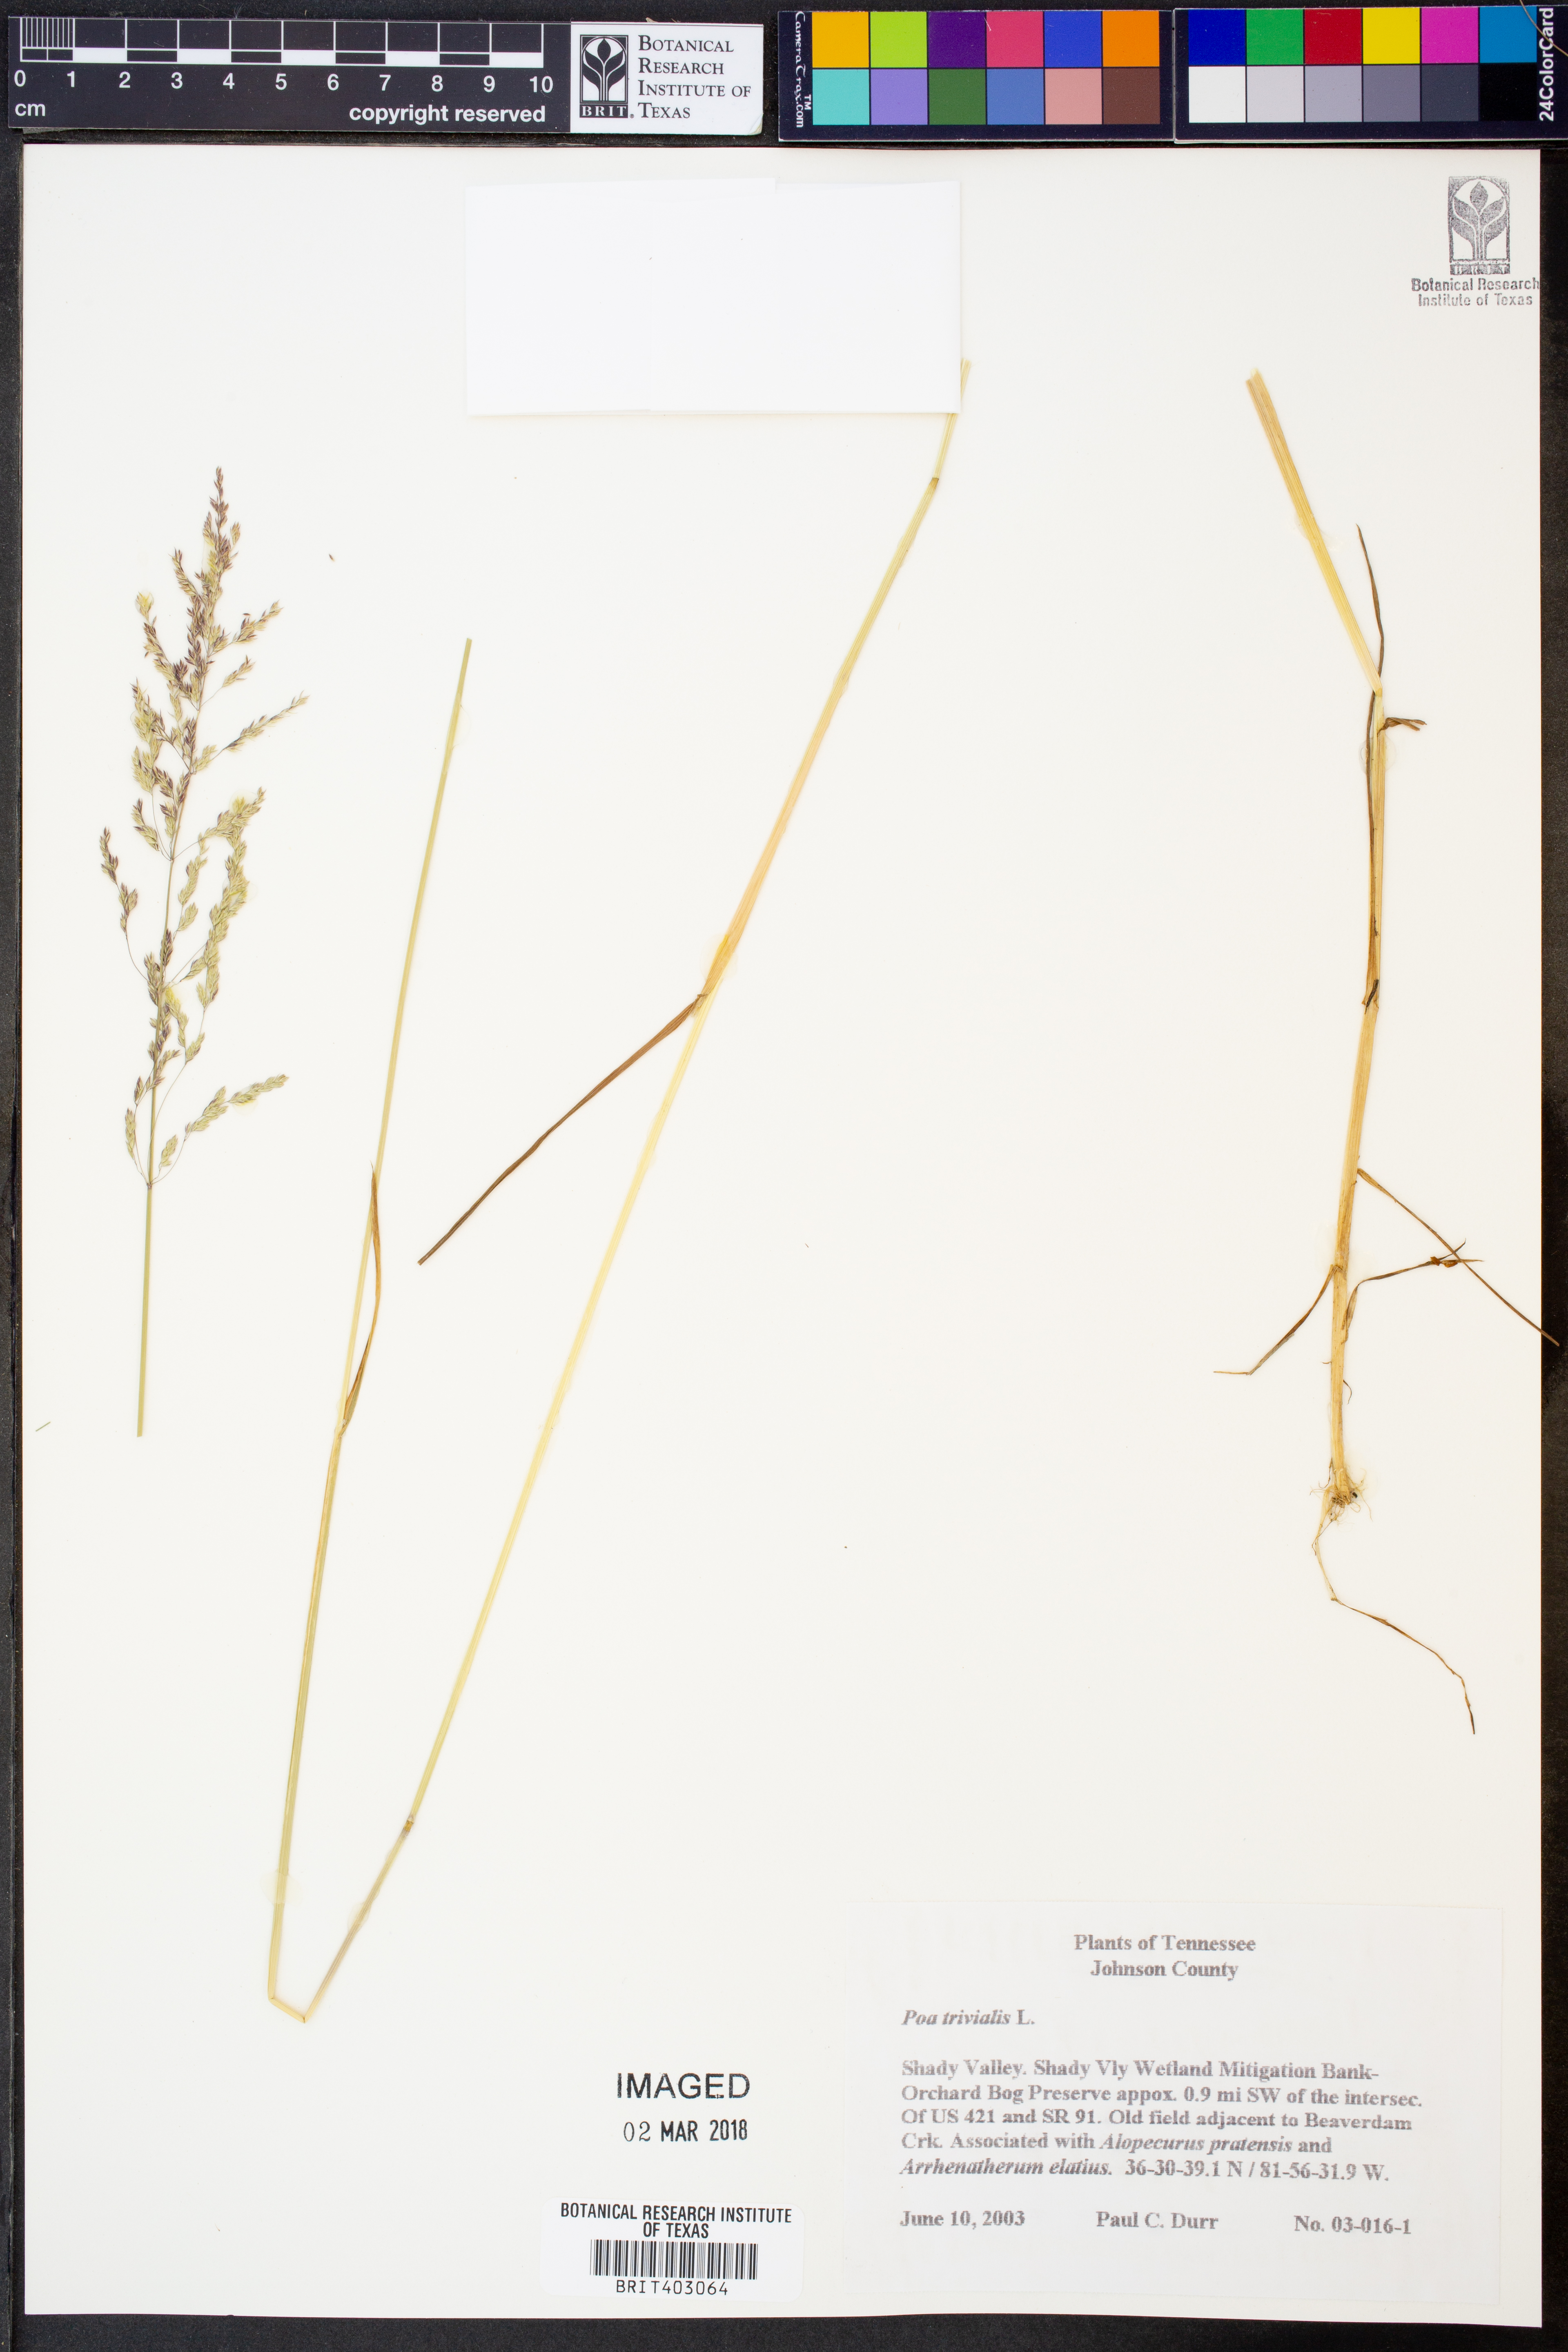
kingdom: Plantae
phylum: Tracheophyta
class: Liliopsida
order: Poales
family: Poaceae
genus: Poa
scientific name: Poa trivialis
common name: Rough bluegrass
